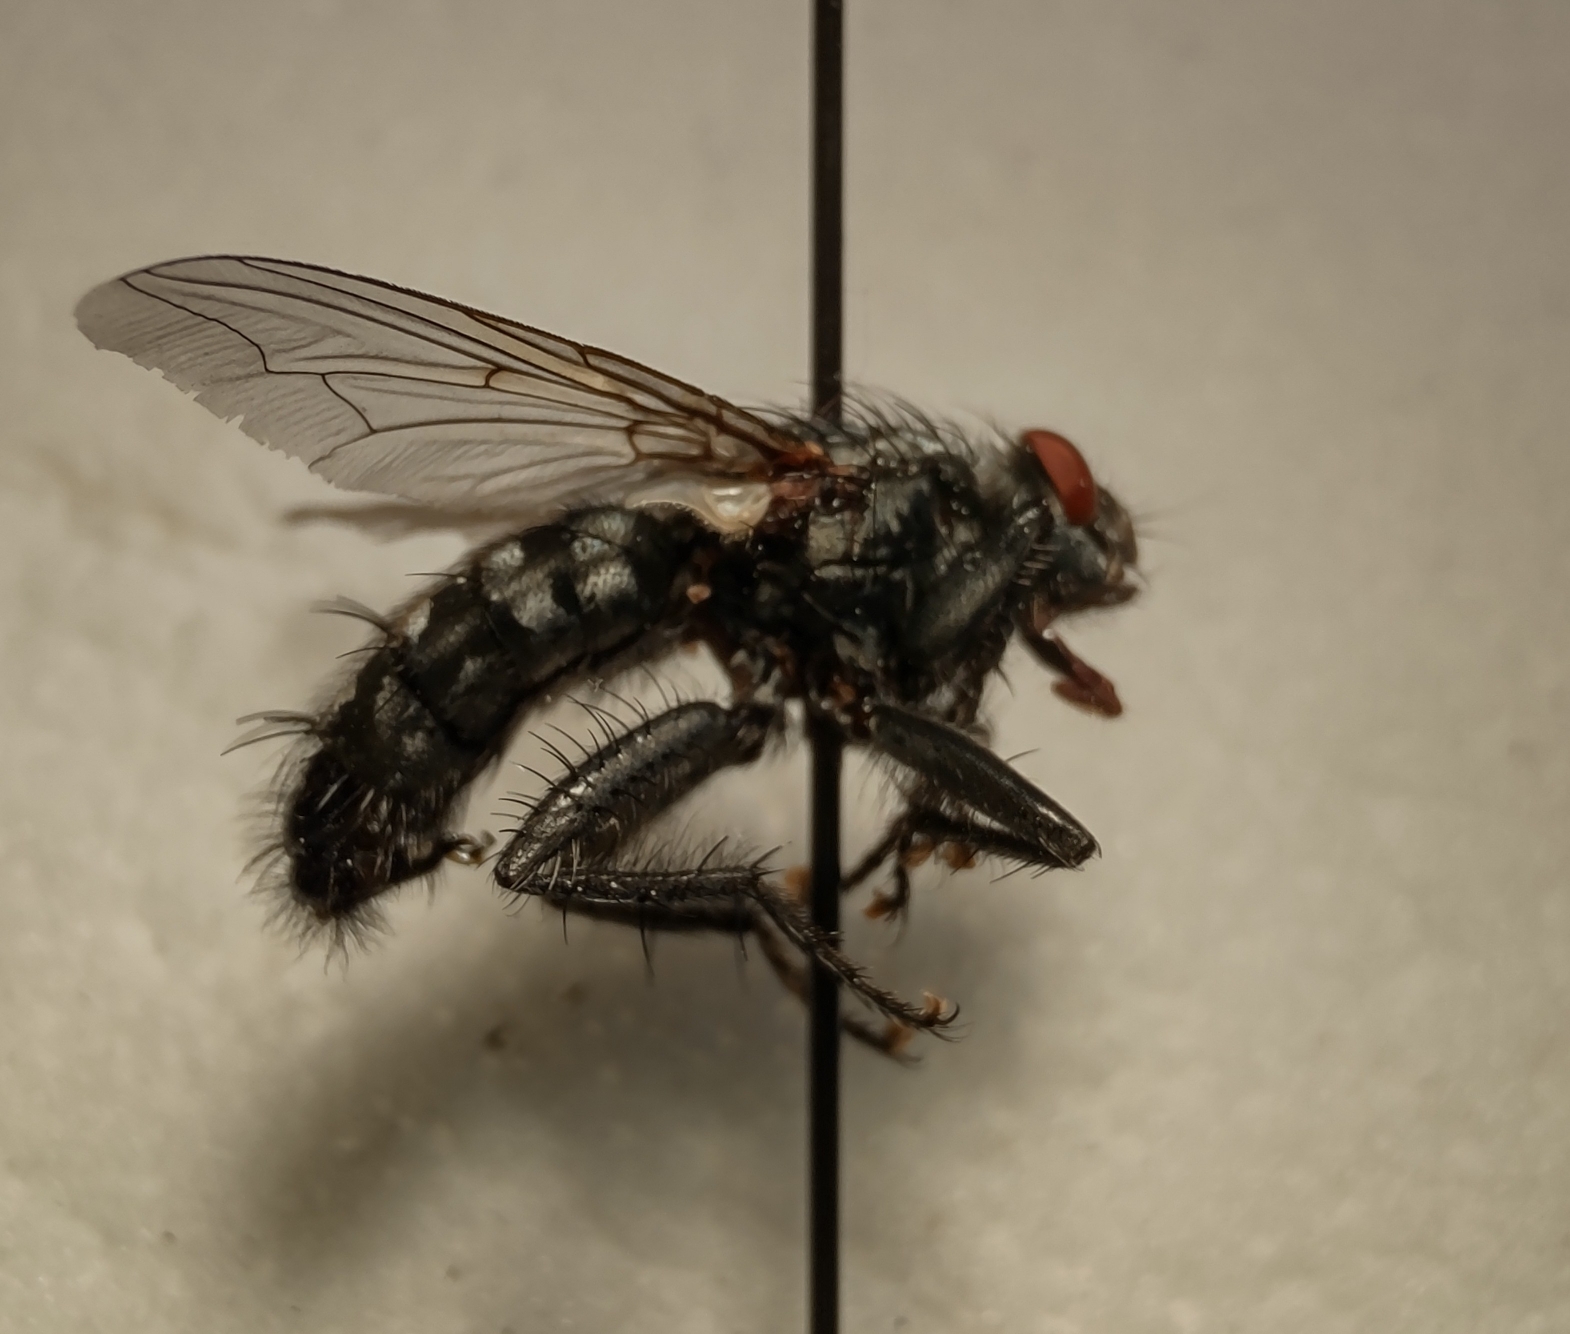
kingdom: Animalia
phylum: Arthropoda
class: Insecta
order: Diptera
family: Sarcophagidae
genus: Sarcophaga
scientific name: Sarcophaga variegata
